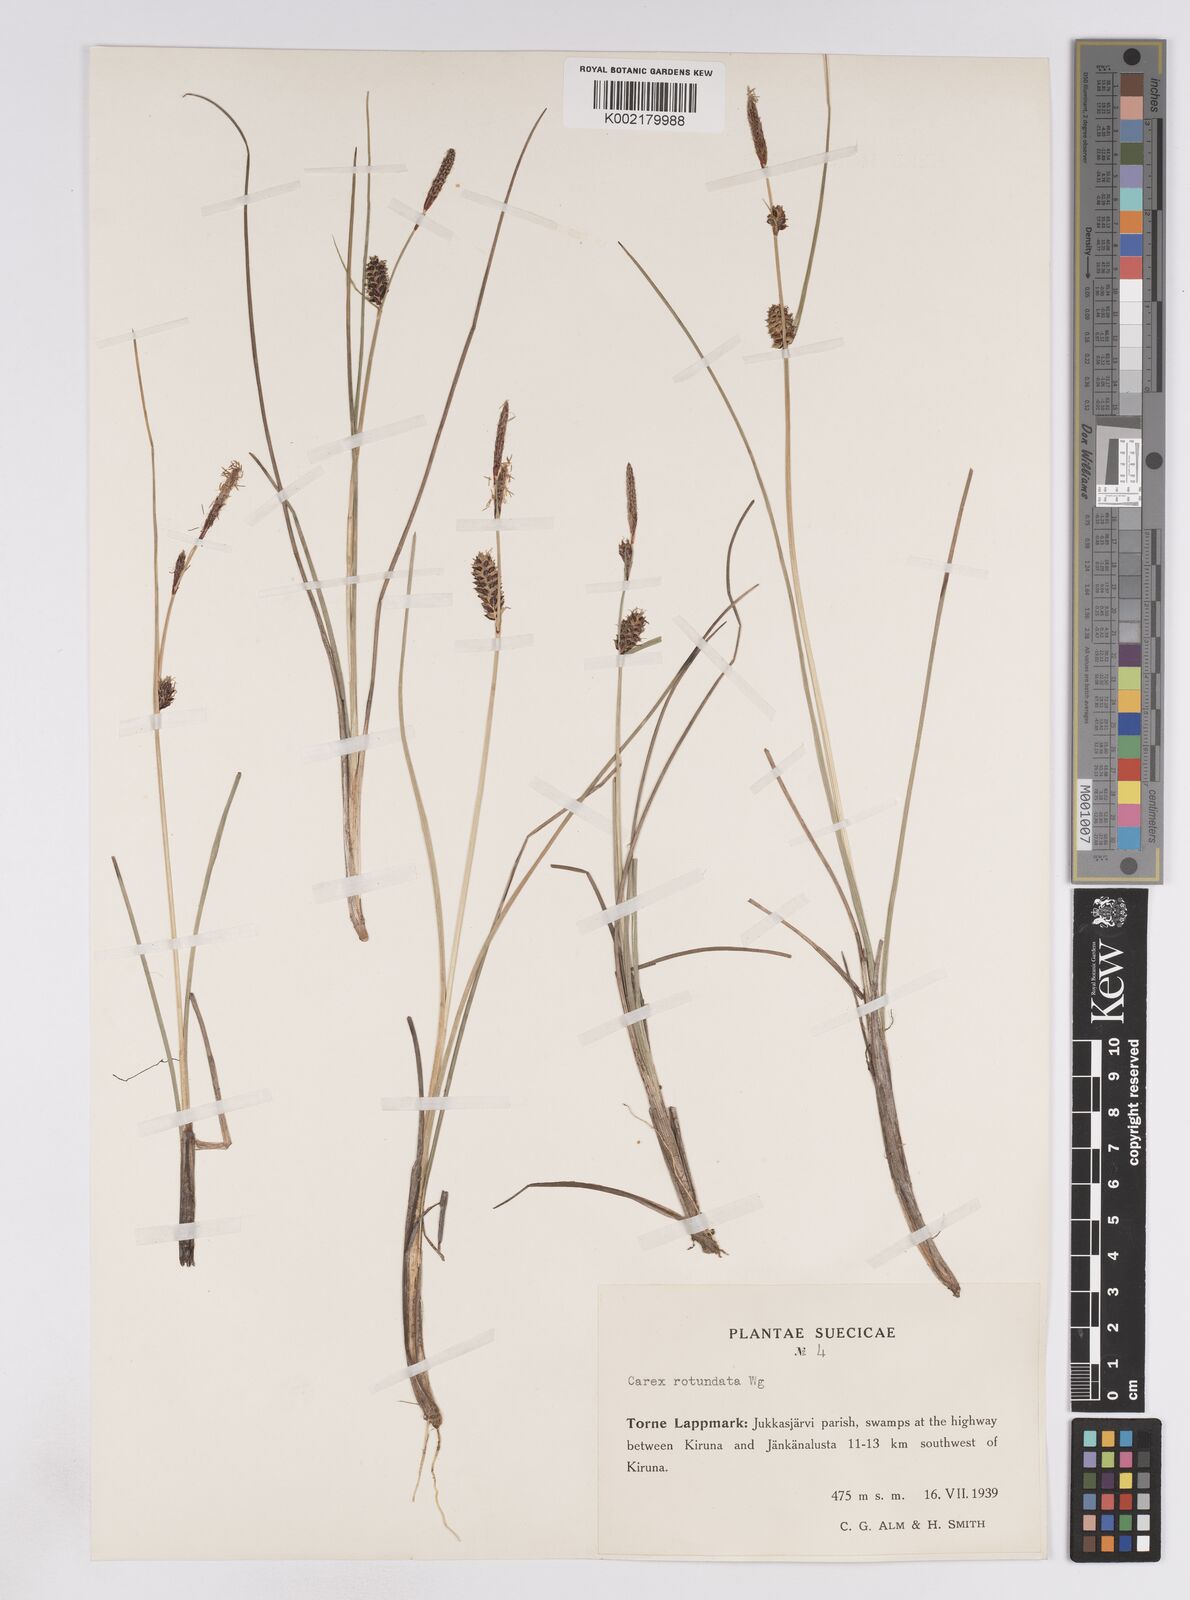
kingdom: Plantae
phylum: Tracheophyta
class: Liliopsida
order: Poales
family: Cyperaceae
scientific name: Cyperaceae
